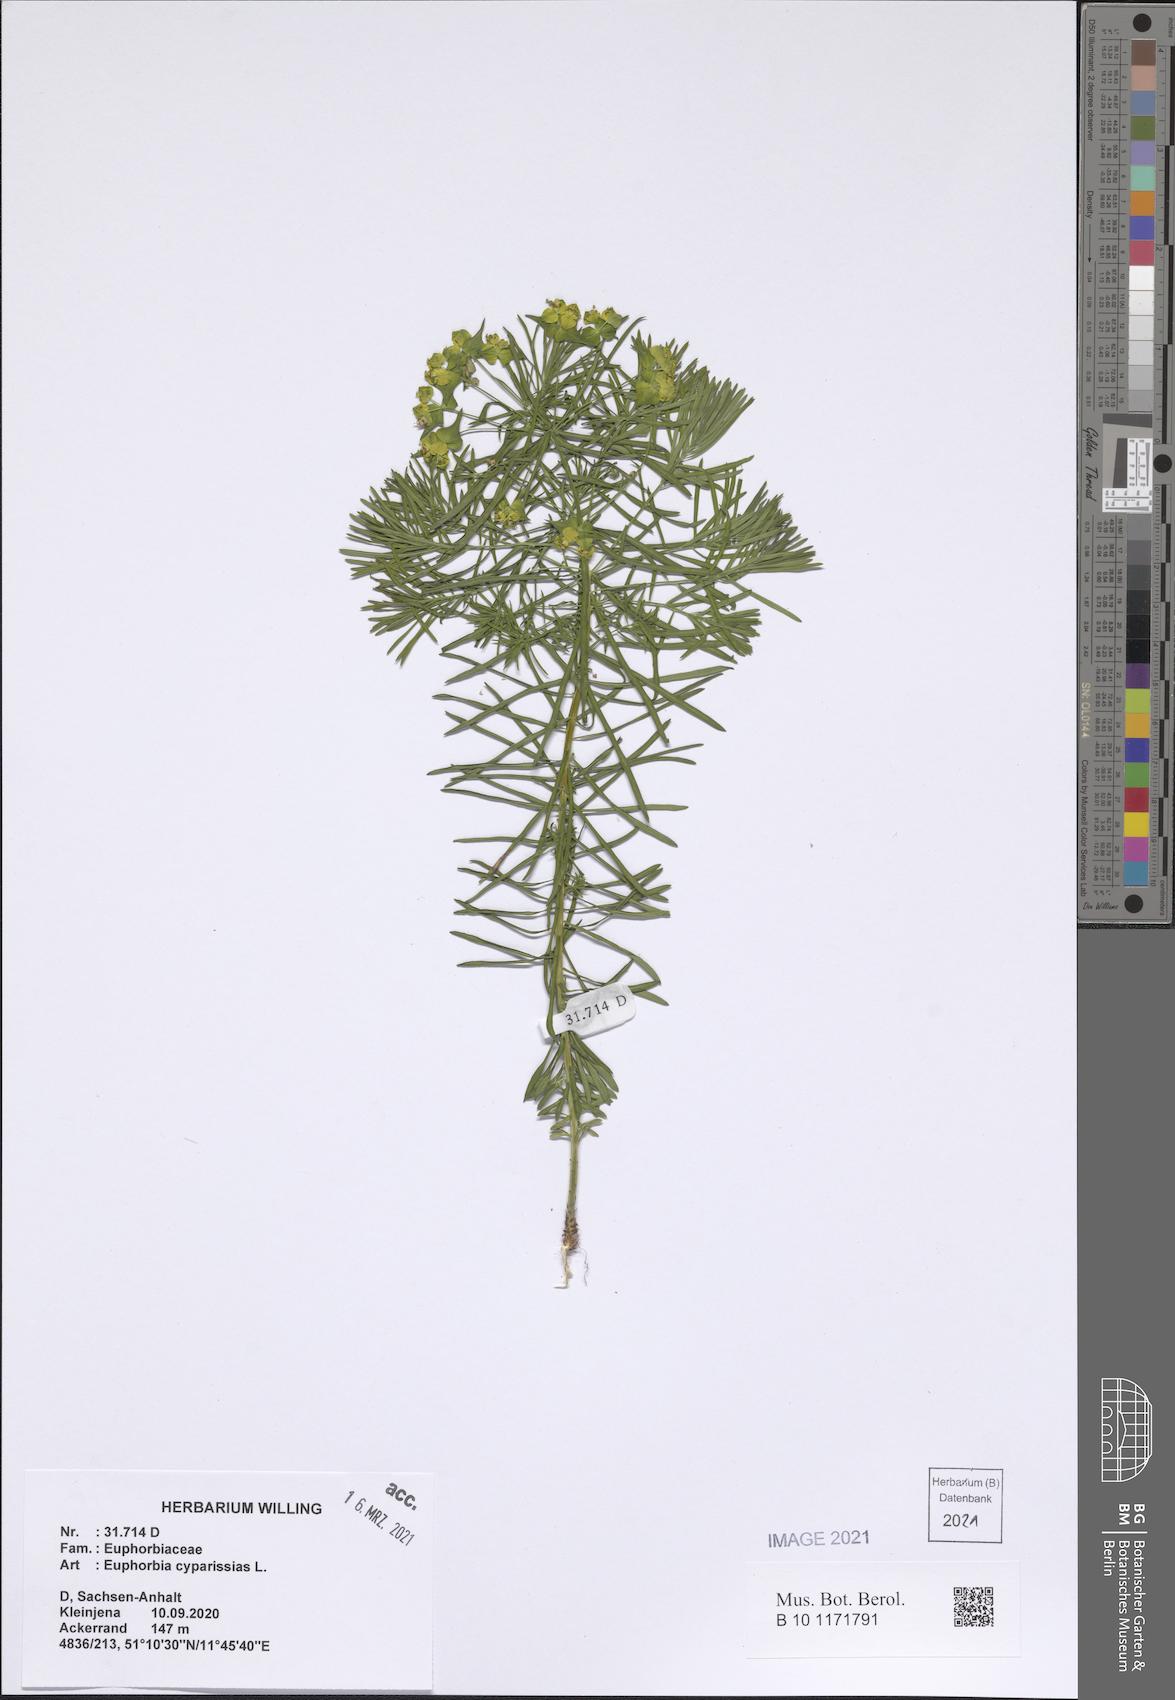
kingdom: Plantae
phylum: Tracheophyta
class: Magnoliopsida
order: Malpighiales
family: Euphorbiaceae
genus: Euphorbia
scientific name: Euphorbia cyparissias
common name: Cypress spurge
